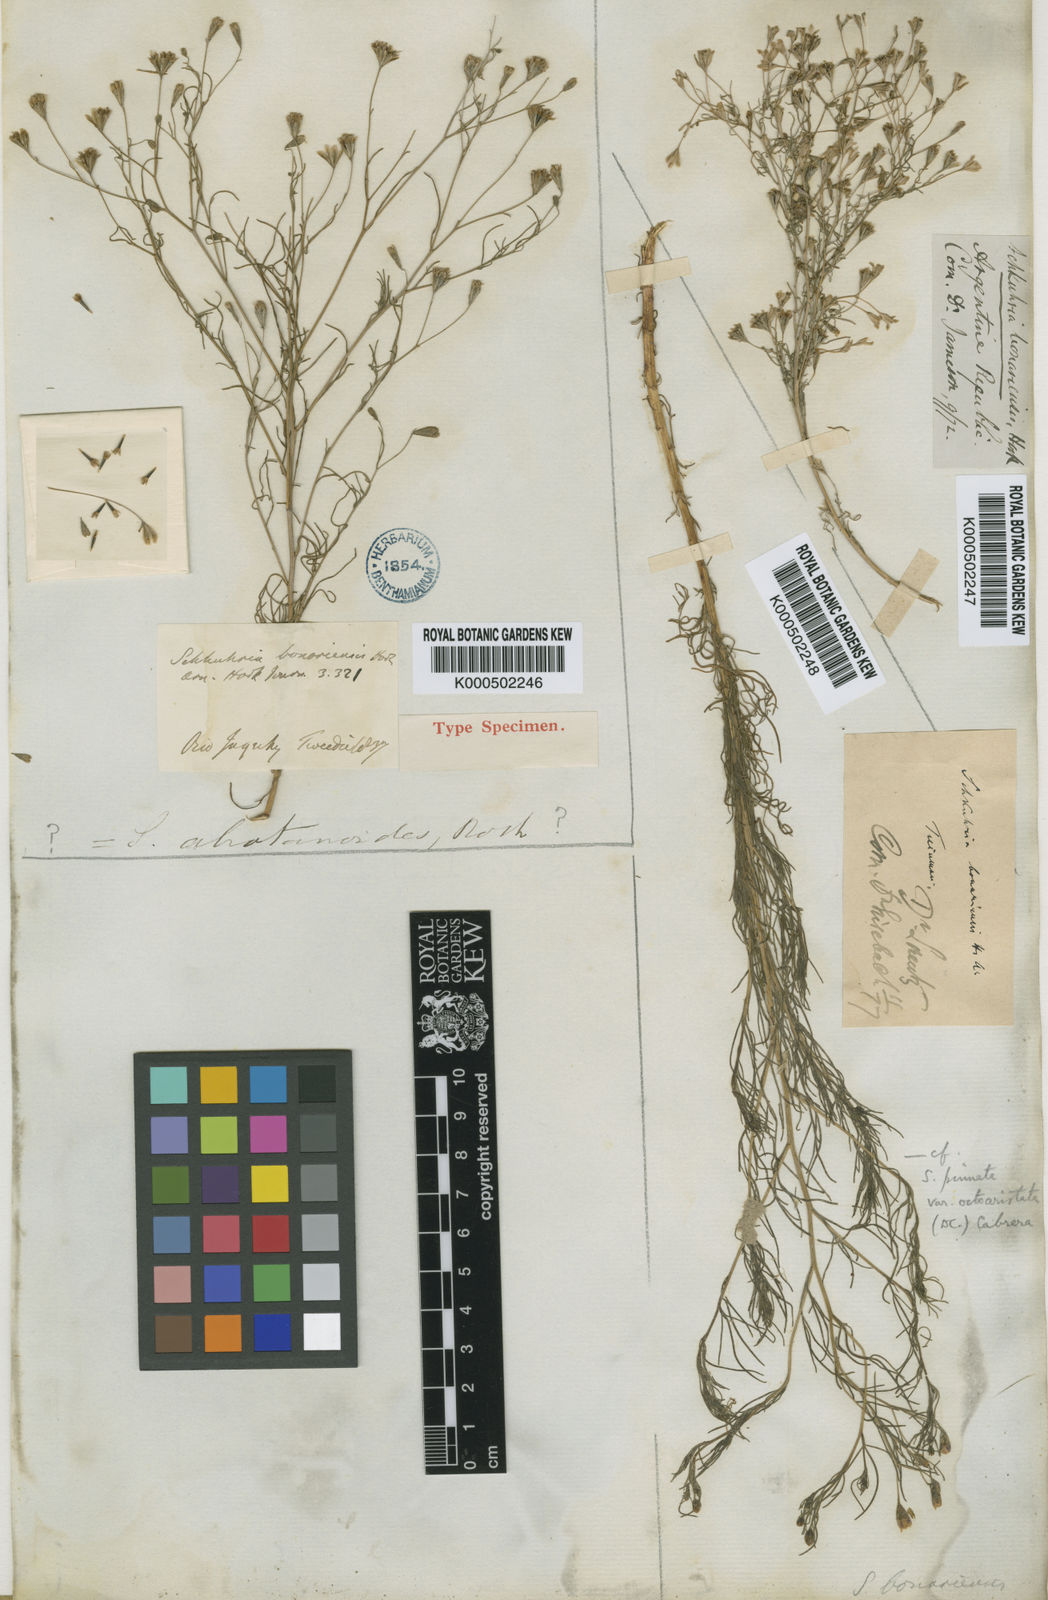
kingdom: Plantae
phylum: Tracheophyta
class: Magnoliopsida
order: Asterales
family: Asteraceae
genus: Schkuhria
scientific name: Schkuhria pinnata
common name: Dwarf marigold
